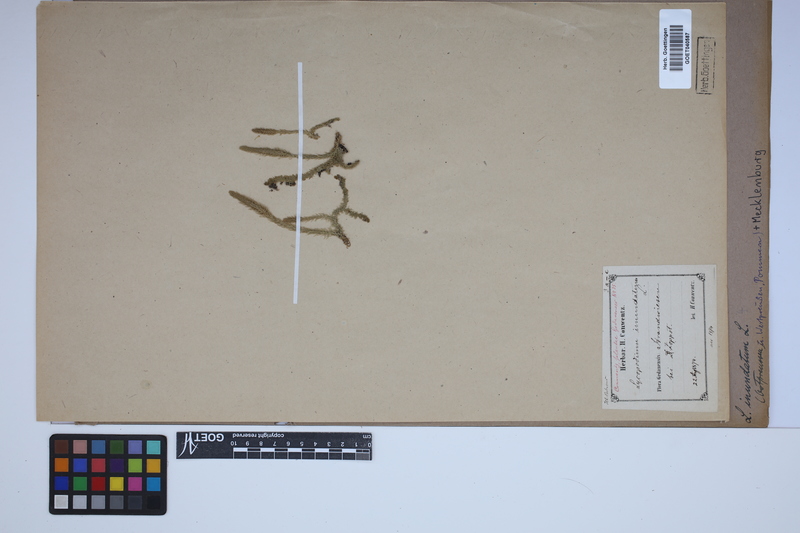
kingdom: Plantae
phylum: Tracheophyta
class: Lycopodiopsida
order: Lycopodiales
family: Lycopodiaceae
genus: Lycopodiella
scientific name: Lycopodiella inundata
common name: Marsh clubmoss
